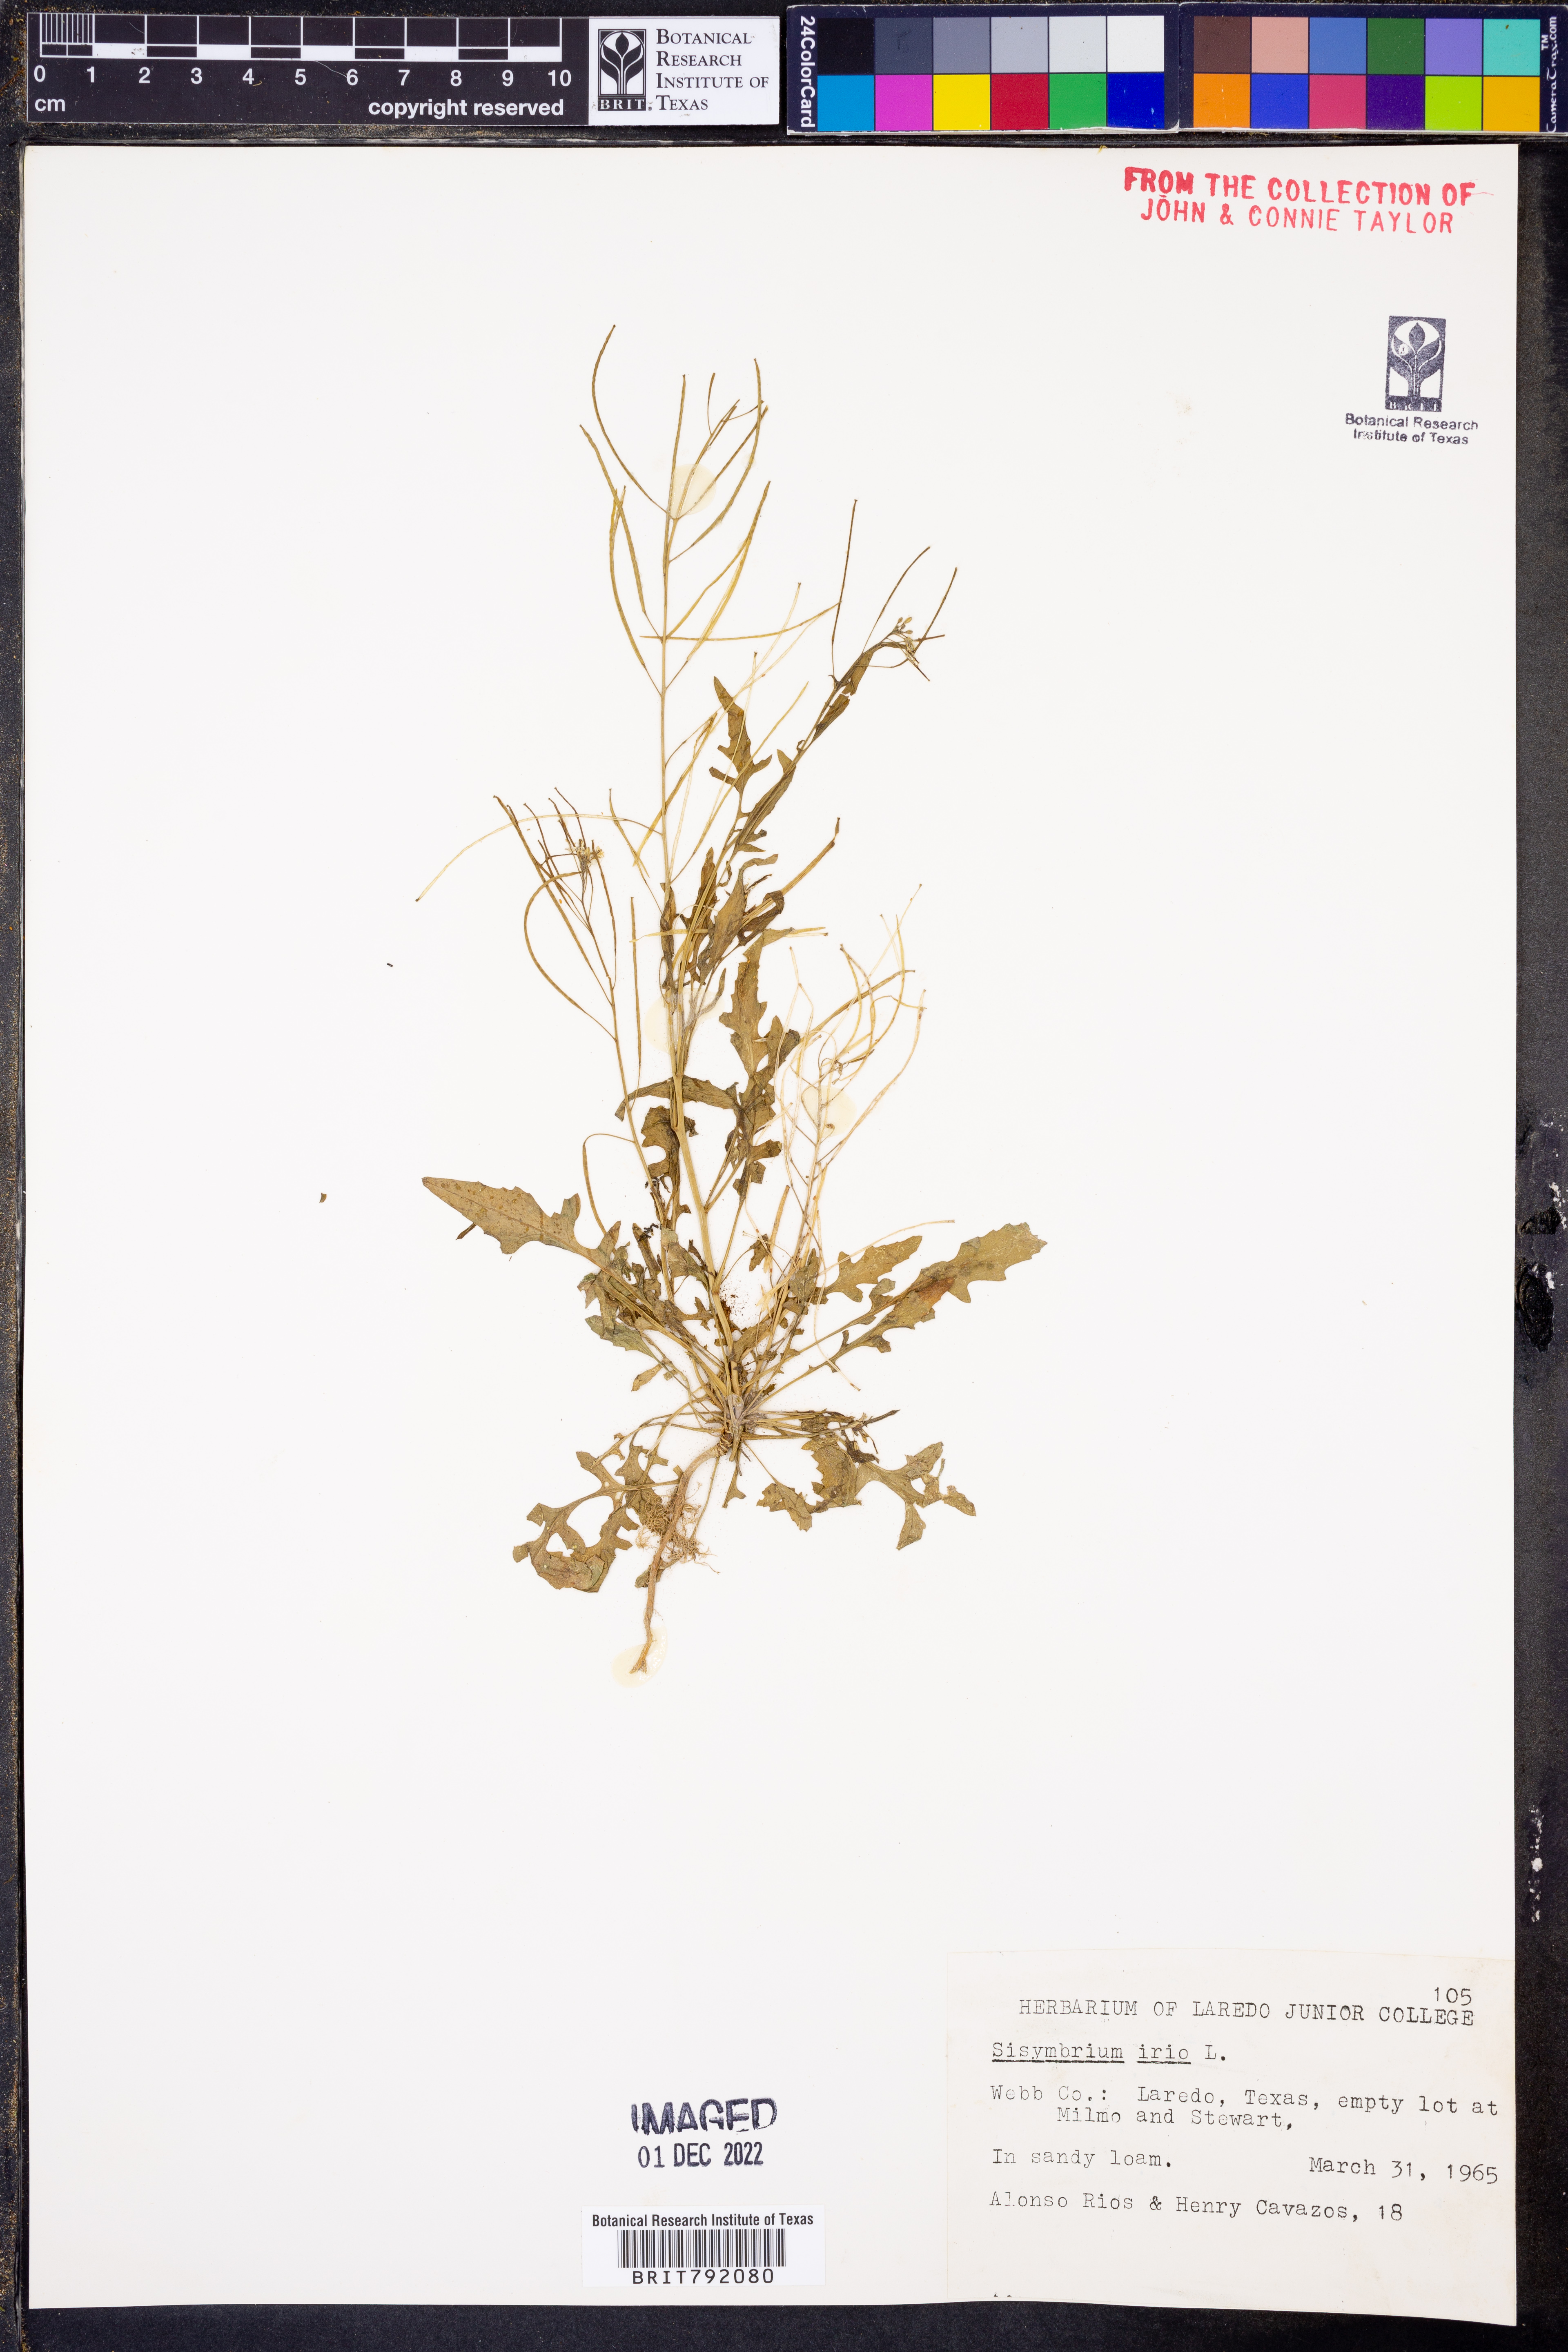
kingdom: Plantae
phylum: Tracheophyta
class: Magnoliopsida
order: Brassicales
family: Brassicaceae
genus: Sisymbrium
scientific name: Sisymbrium irio
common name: London rocket
